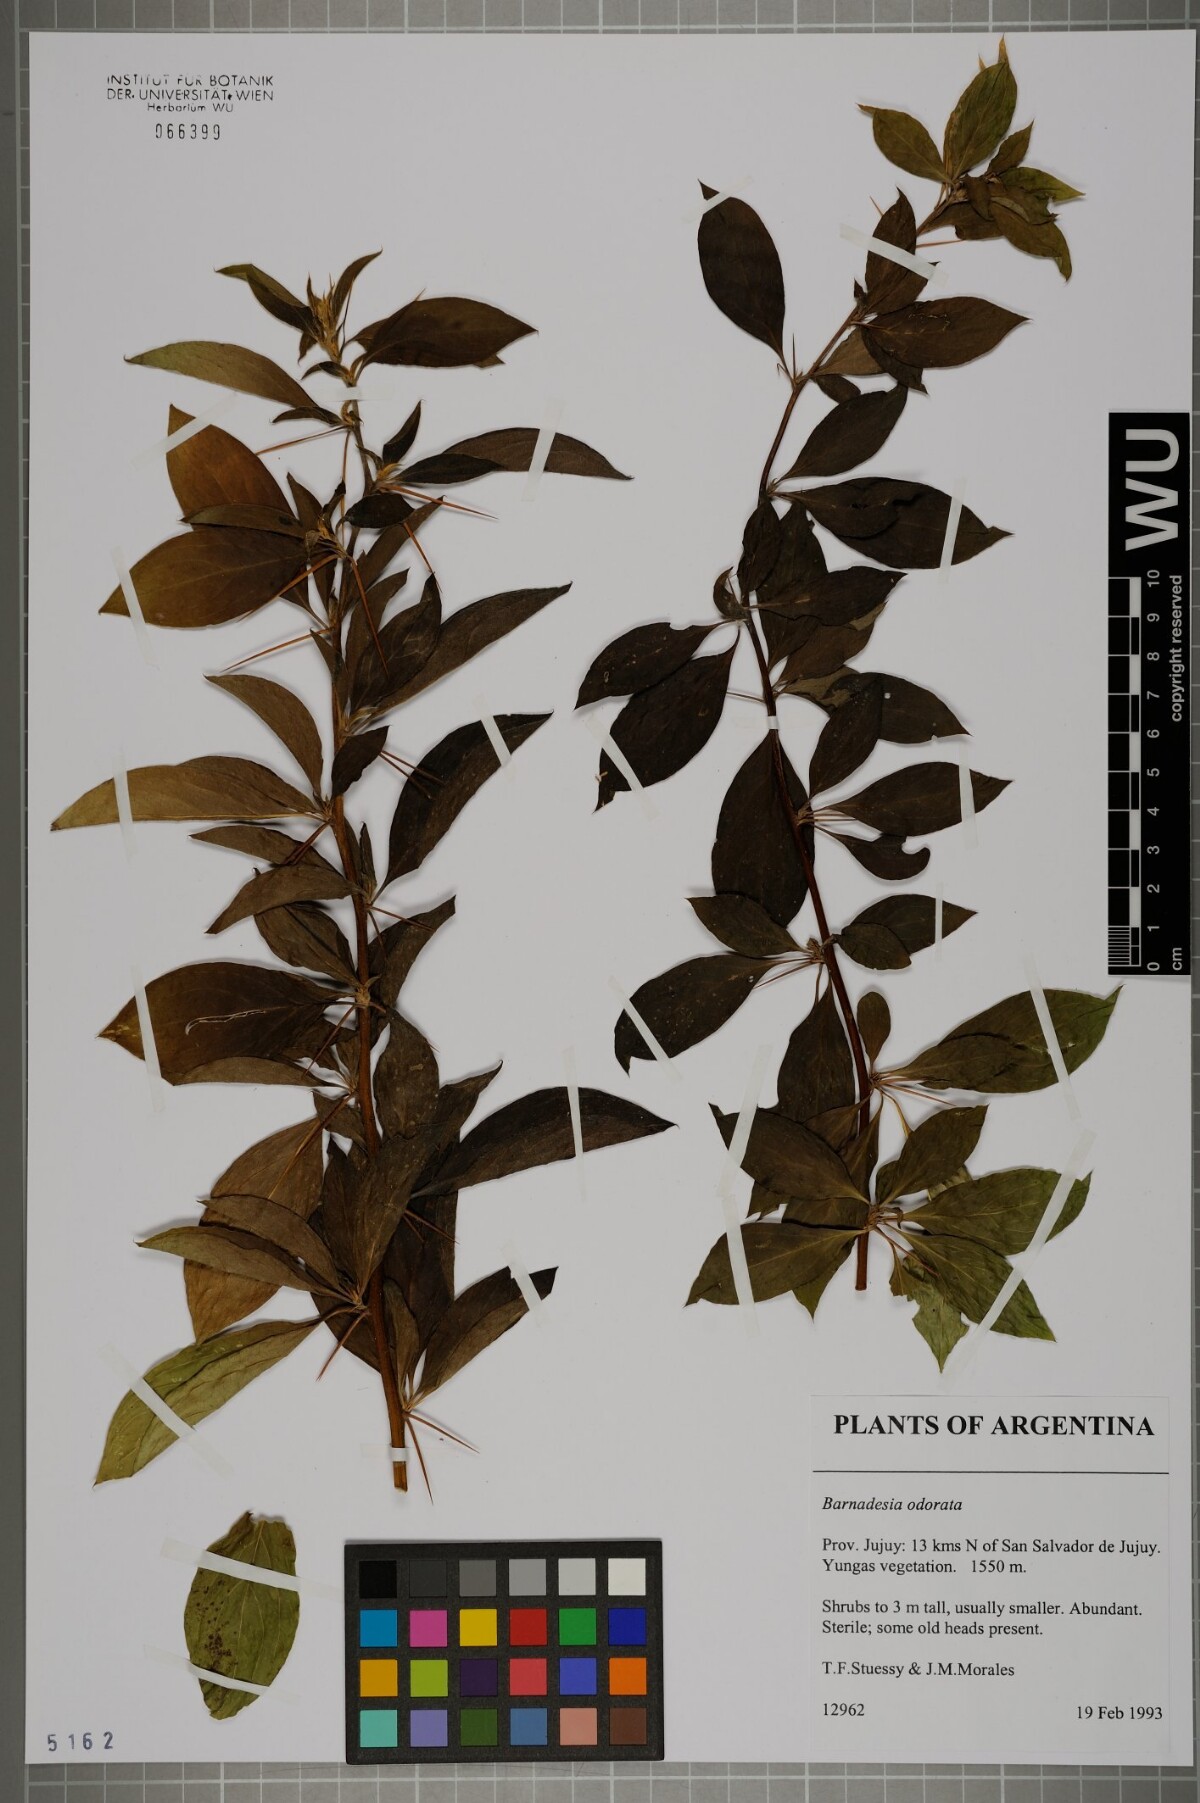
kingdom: Plantae
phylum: Tracheophyta
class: Magnoliopsida
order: Asterales
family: Asteraceae
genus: Barnadesia
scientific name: Barnadesia odorata
